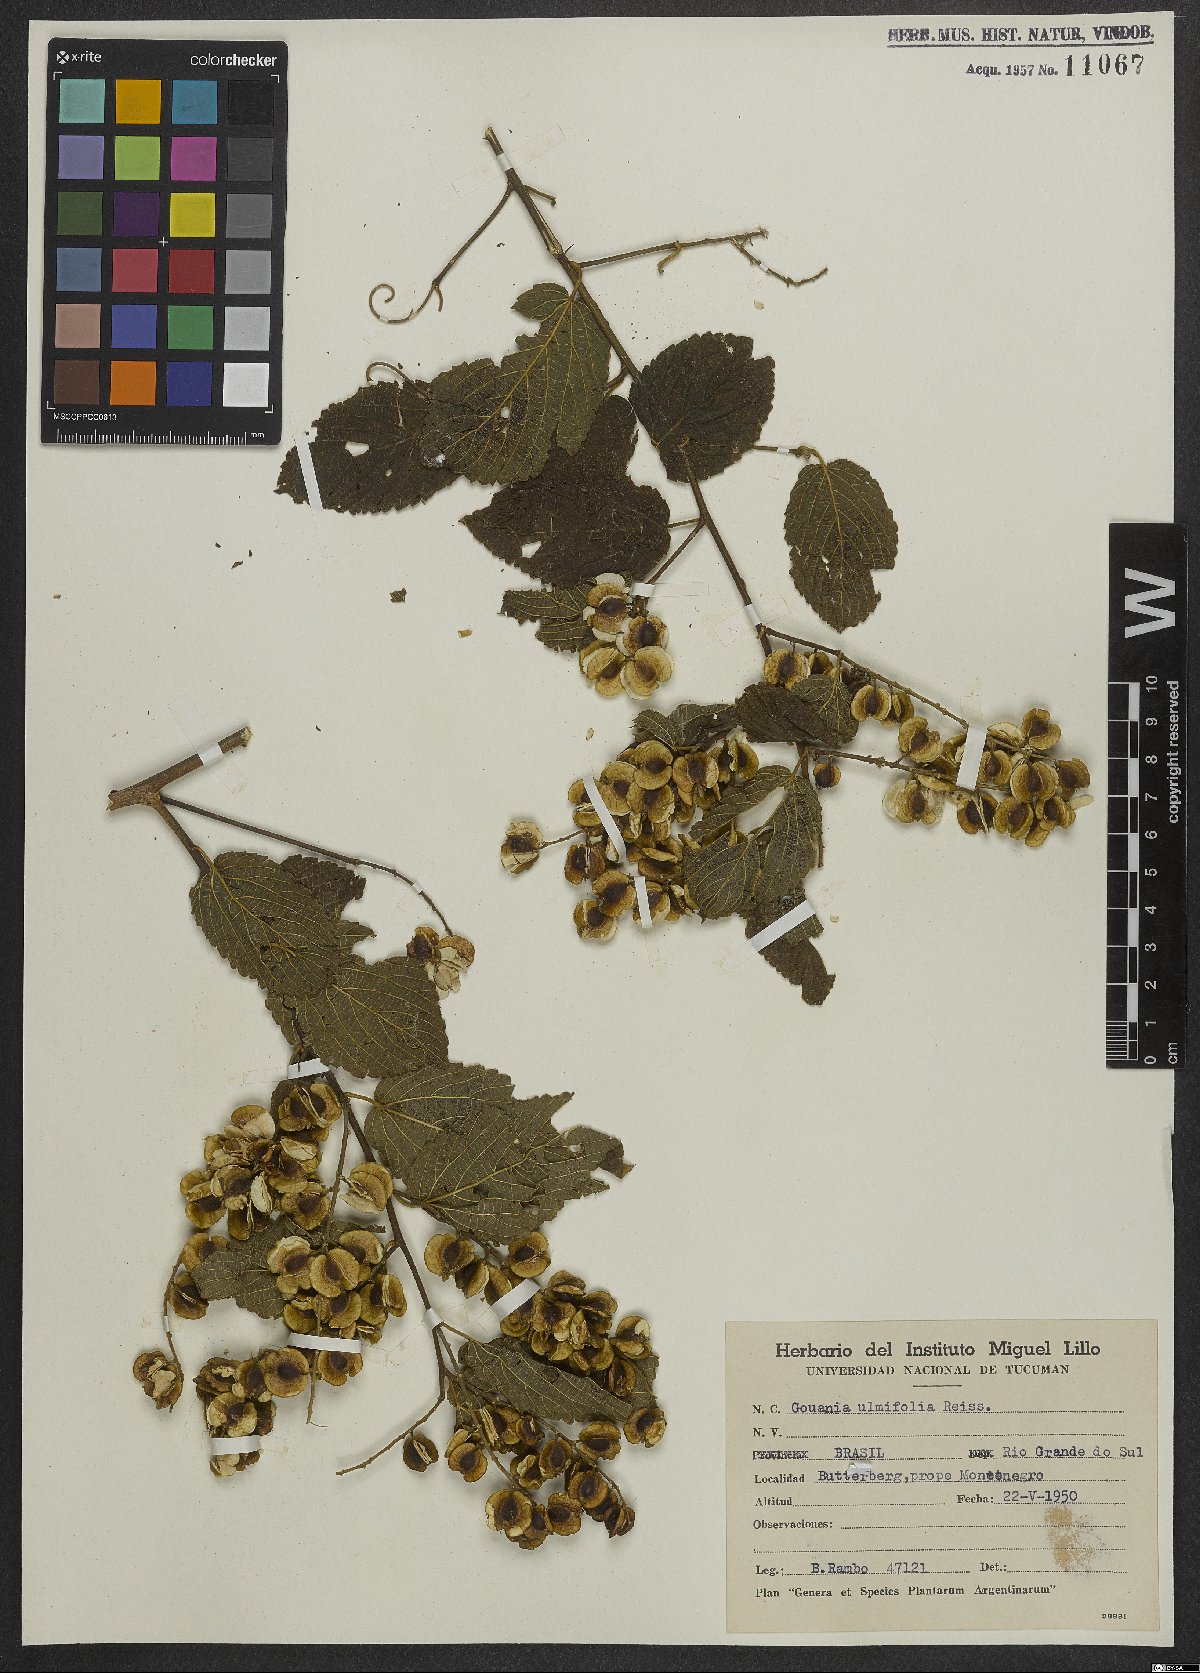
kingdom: Plantae
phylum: Tracheophyta
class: Magnoliopsida
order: Rosales
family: Rhamnaceae
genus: Gouania
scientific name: Gouania ulmifolia
